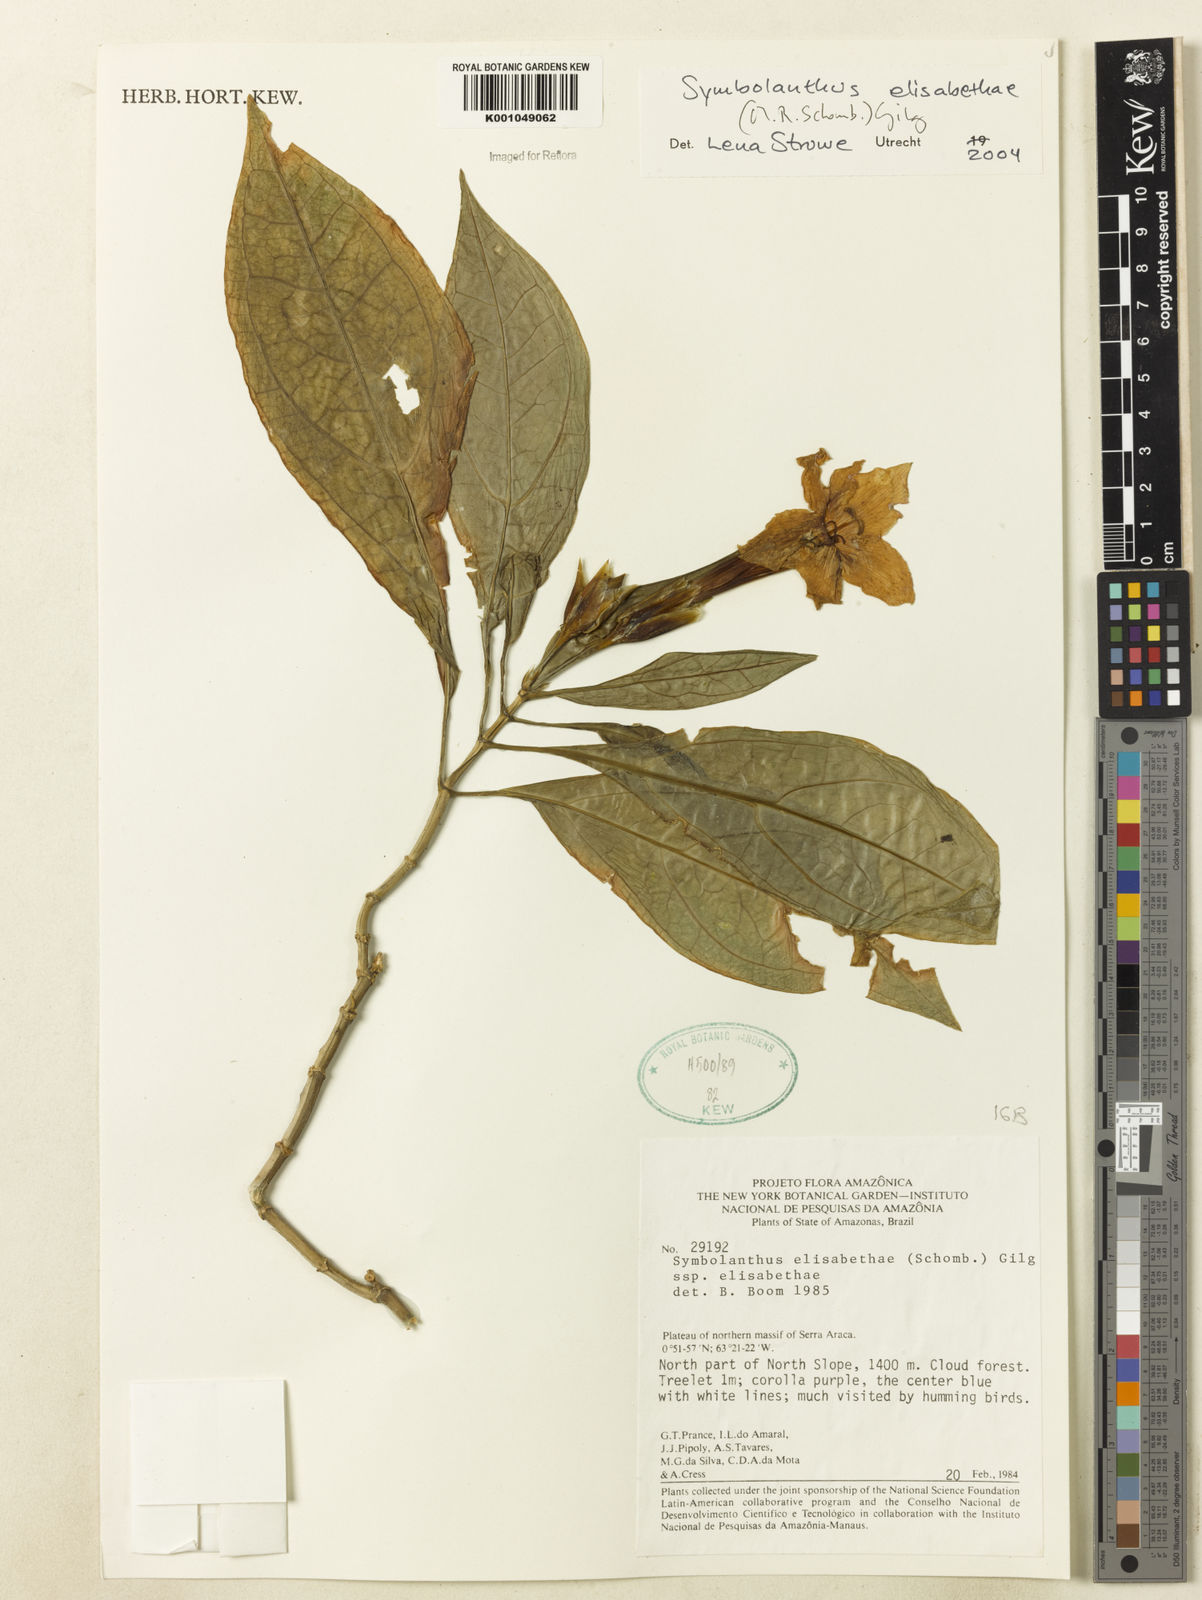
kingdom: Plantae
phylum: Tracheophyta
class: Magnoliopsida
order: Gentianales
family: Gentianaceae
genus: Symbolanthus
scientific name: Symbolanthus elisabethae
